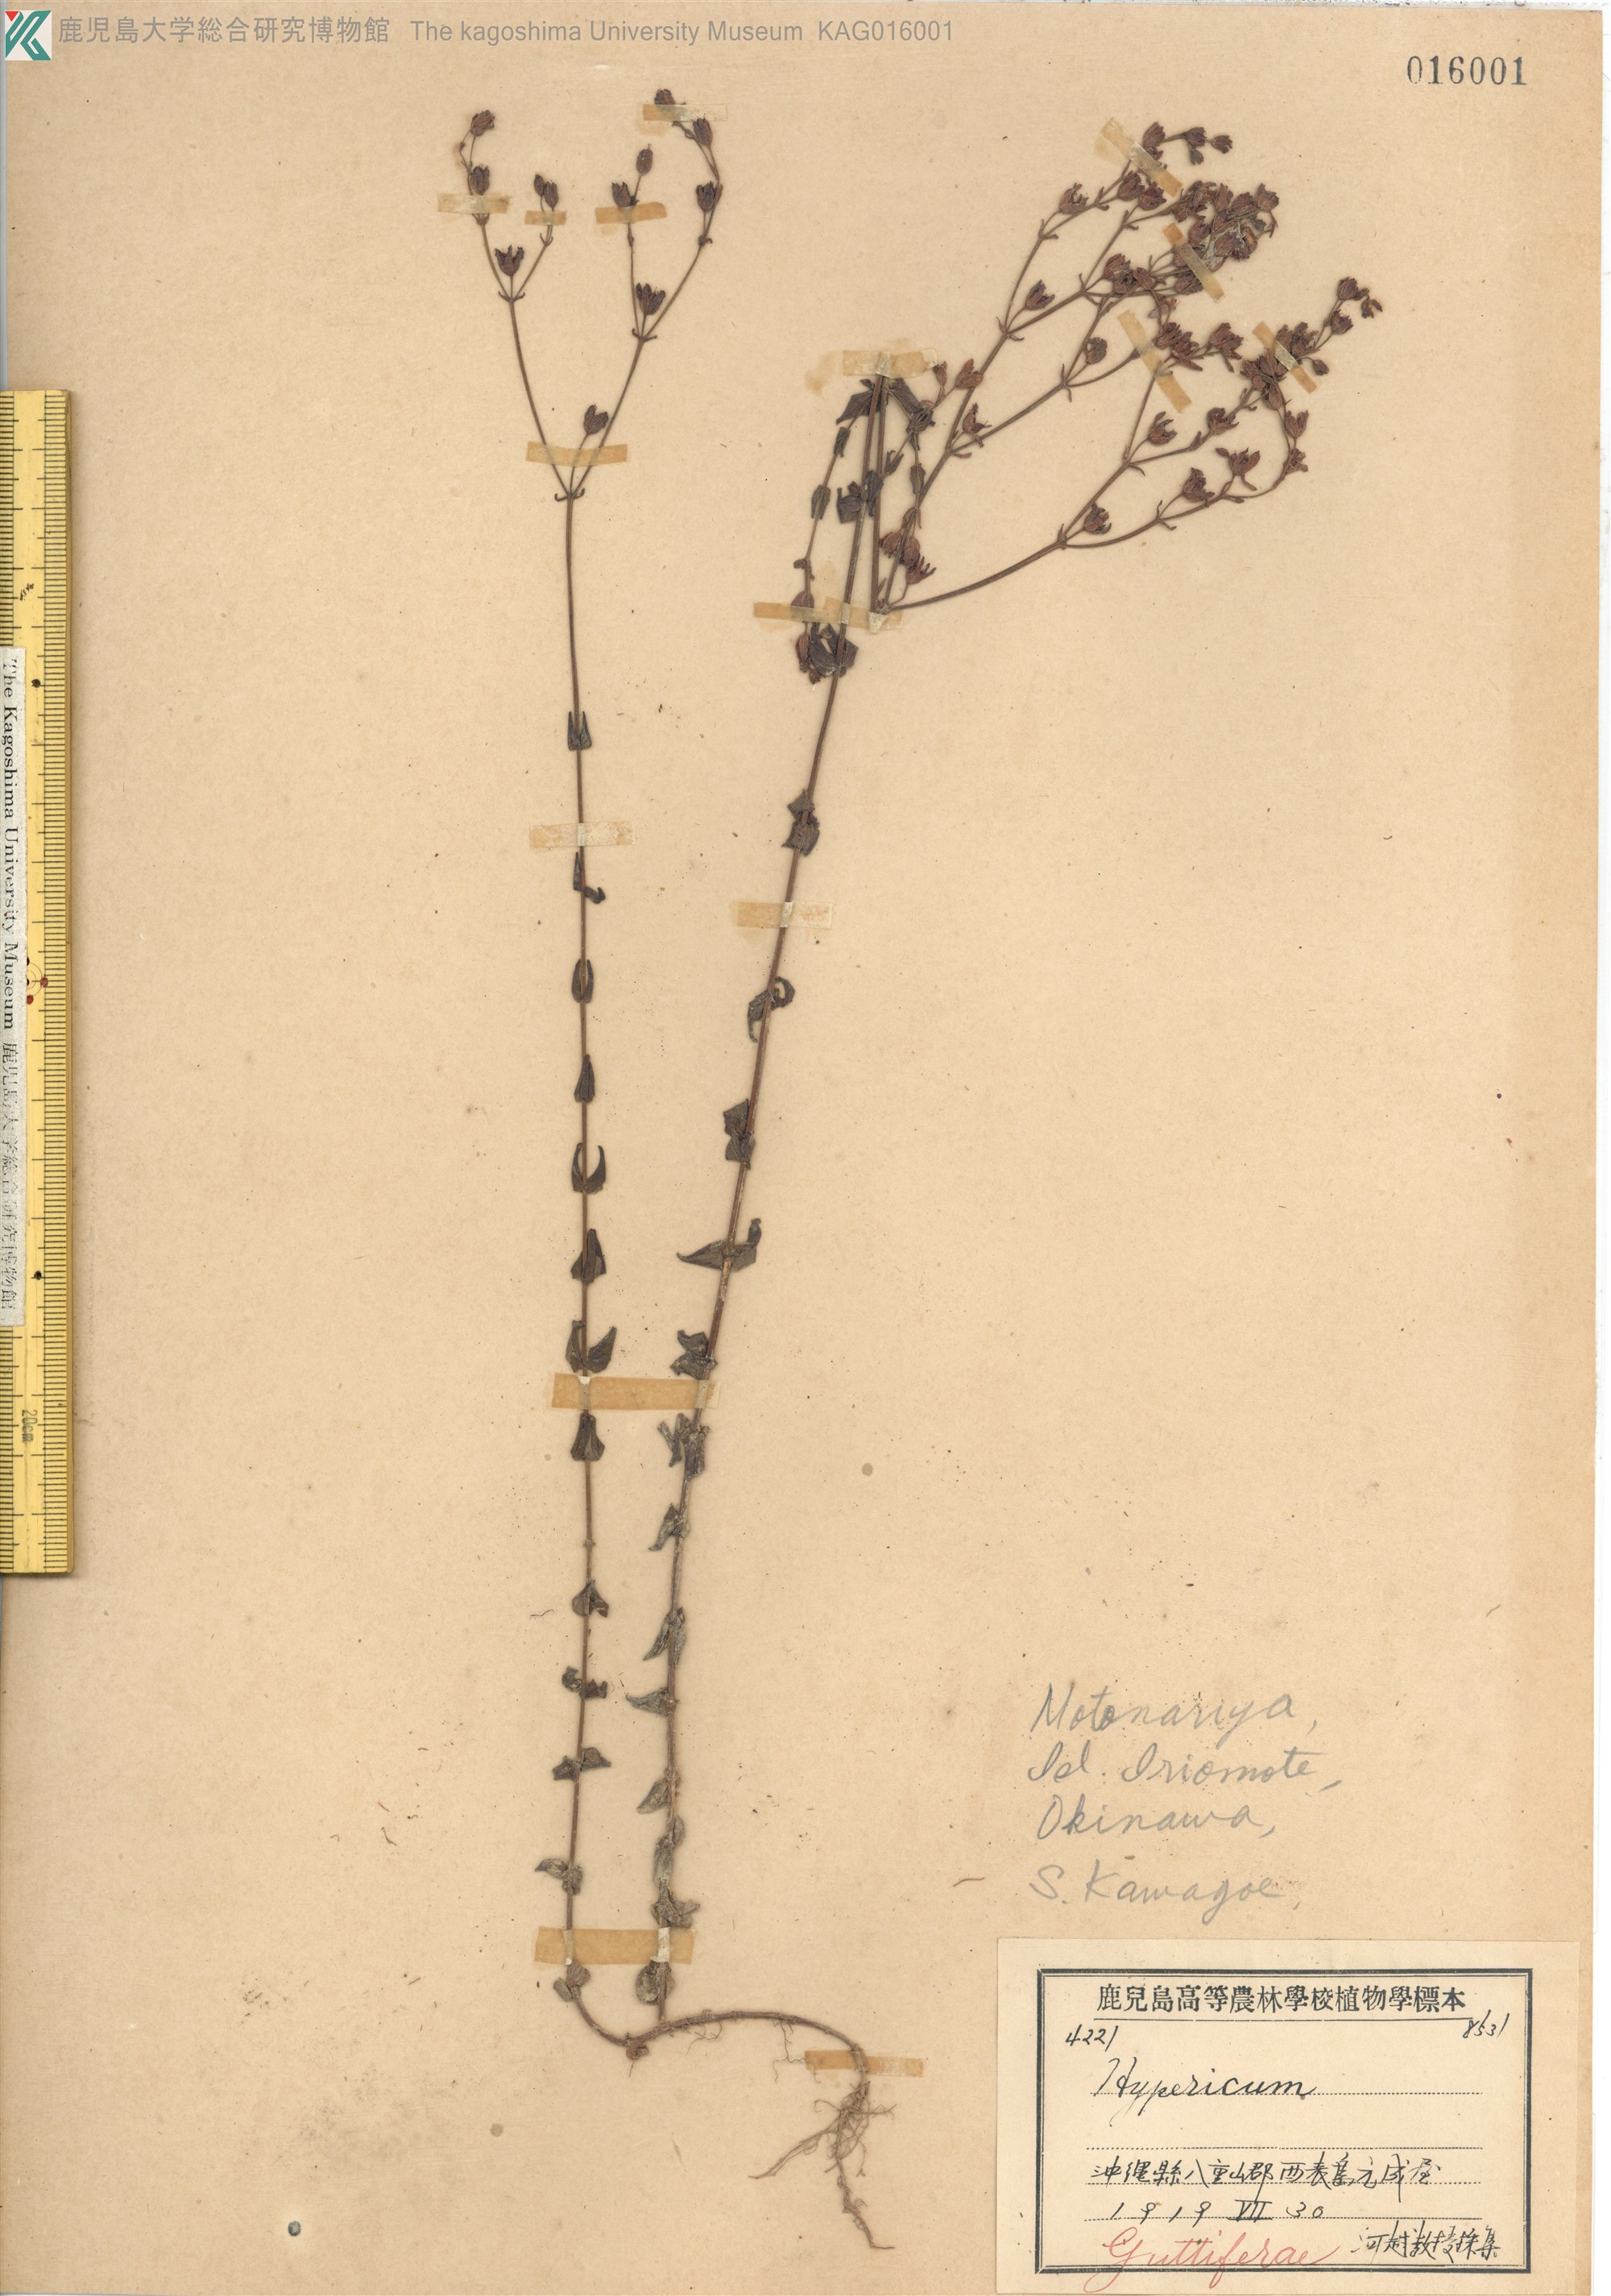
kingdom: Plantae
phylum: Tracheophyta
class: Magnoliopsida
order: Malpighiales
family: Hypericaceae
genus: Hypericum
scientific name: Hypericum japonicum
